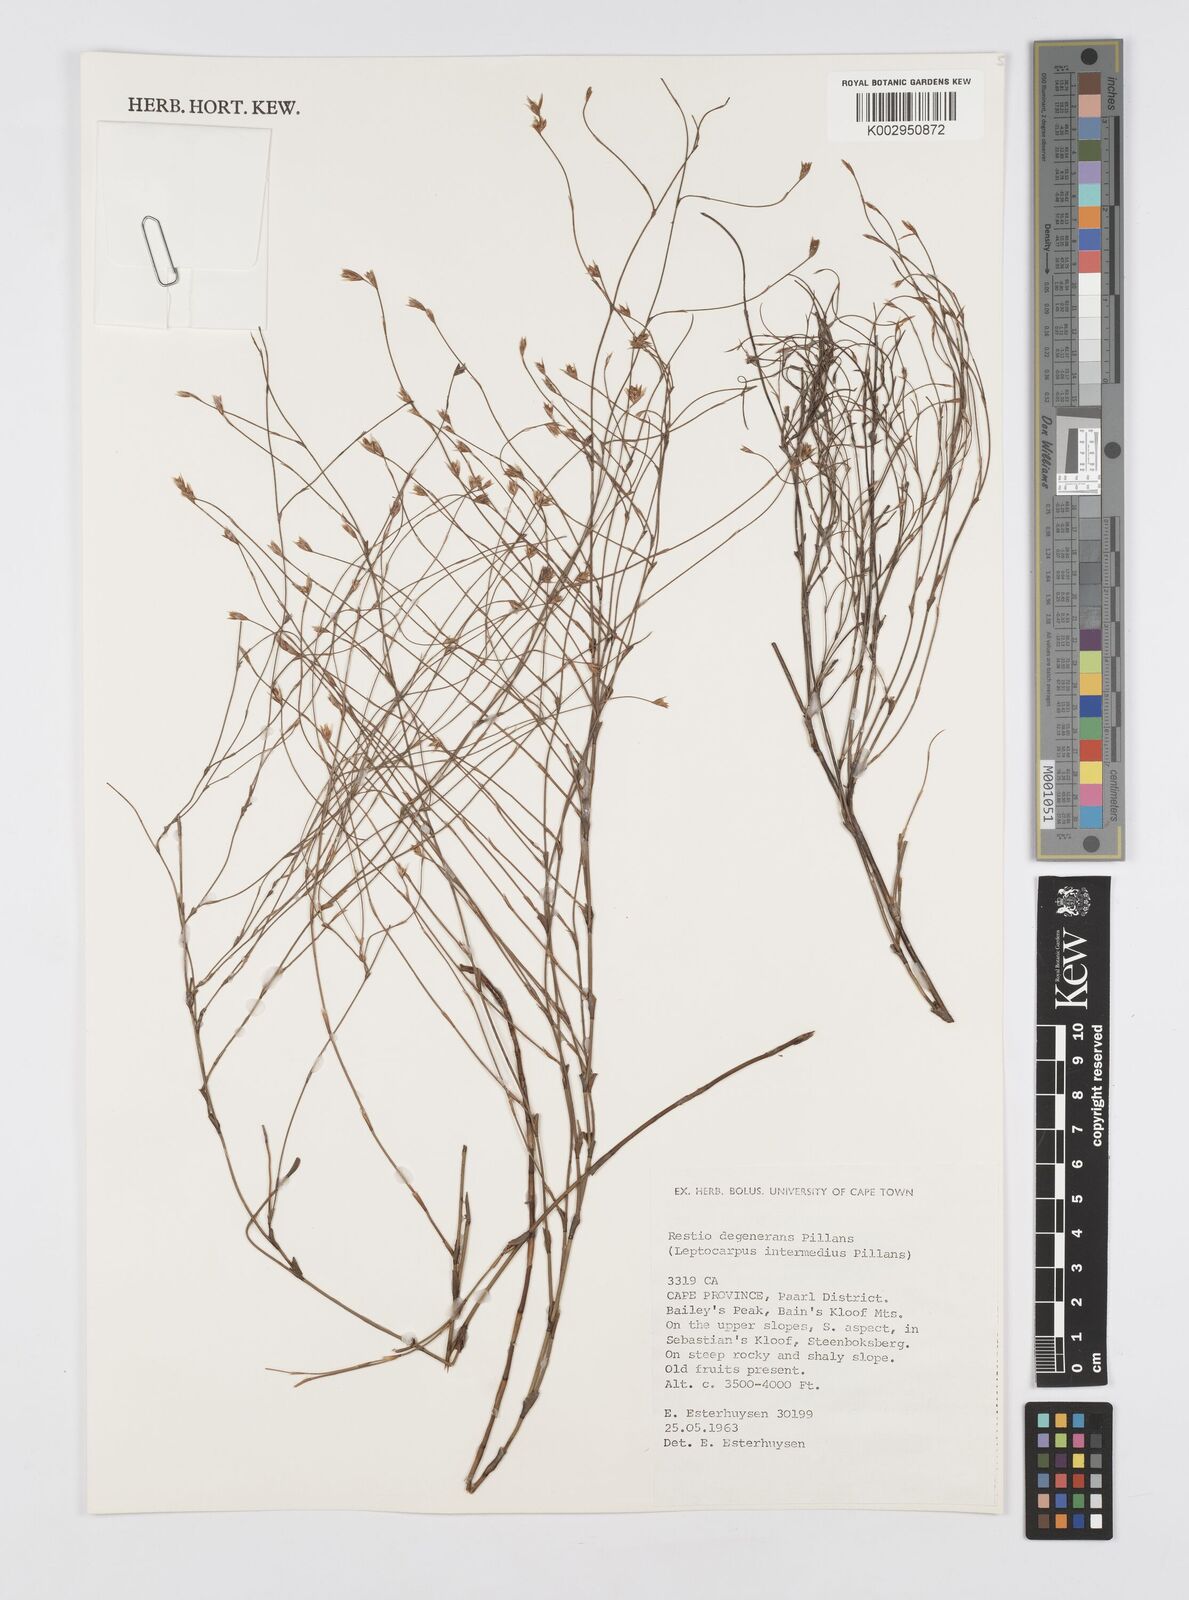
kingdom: Plantae
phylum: Tracheophyta
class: Liliopsida
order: Poales
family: Restionaceae
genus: Restio
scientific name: Restio degenerans
